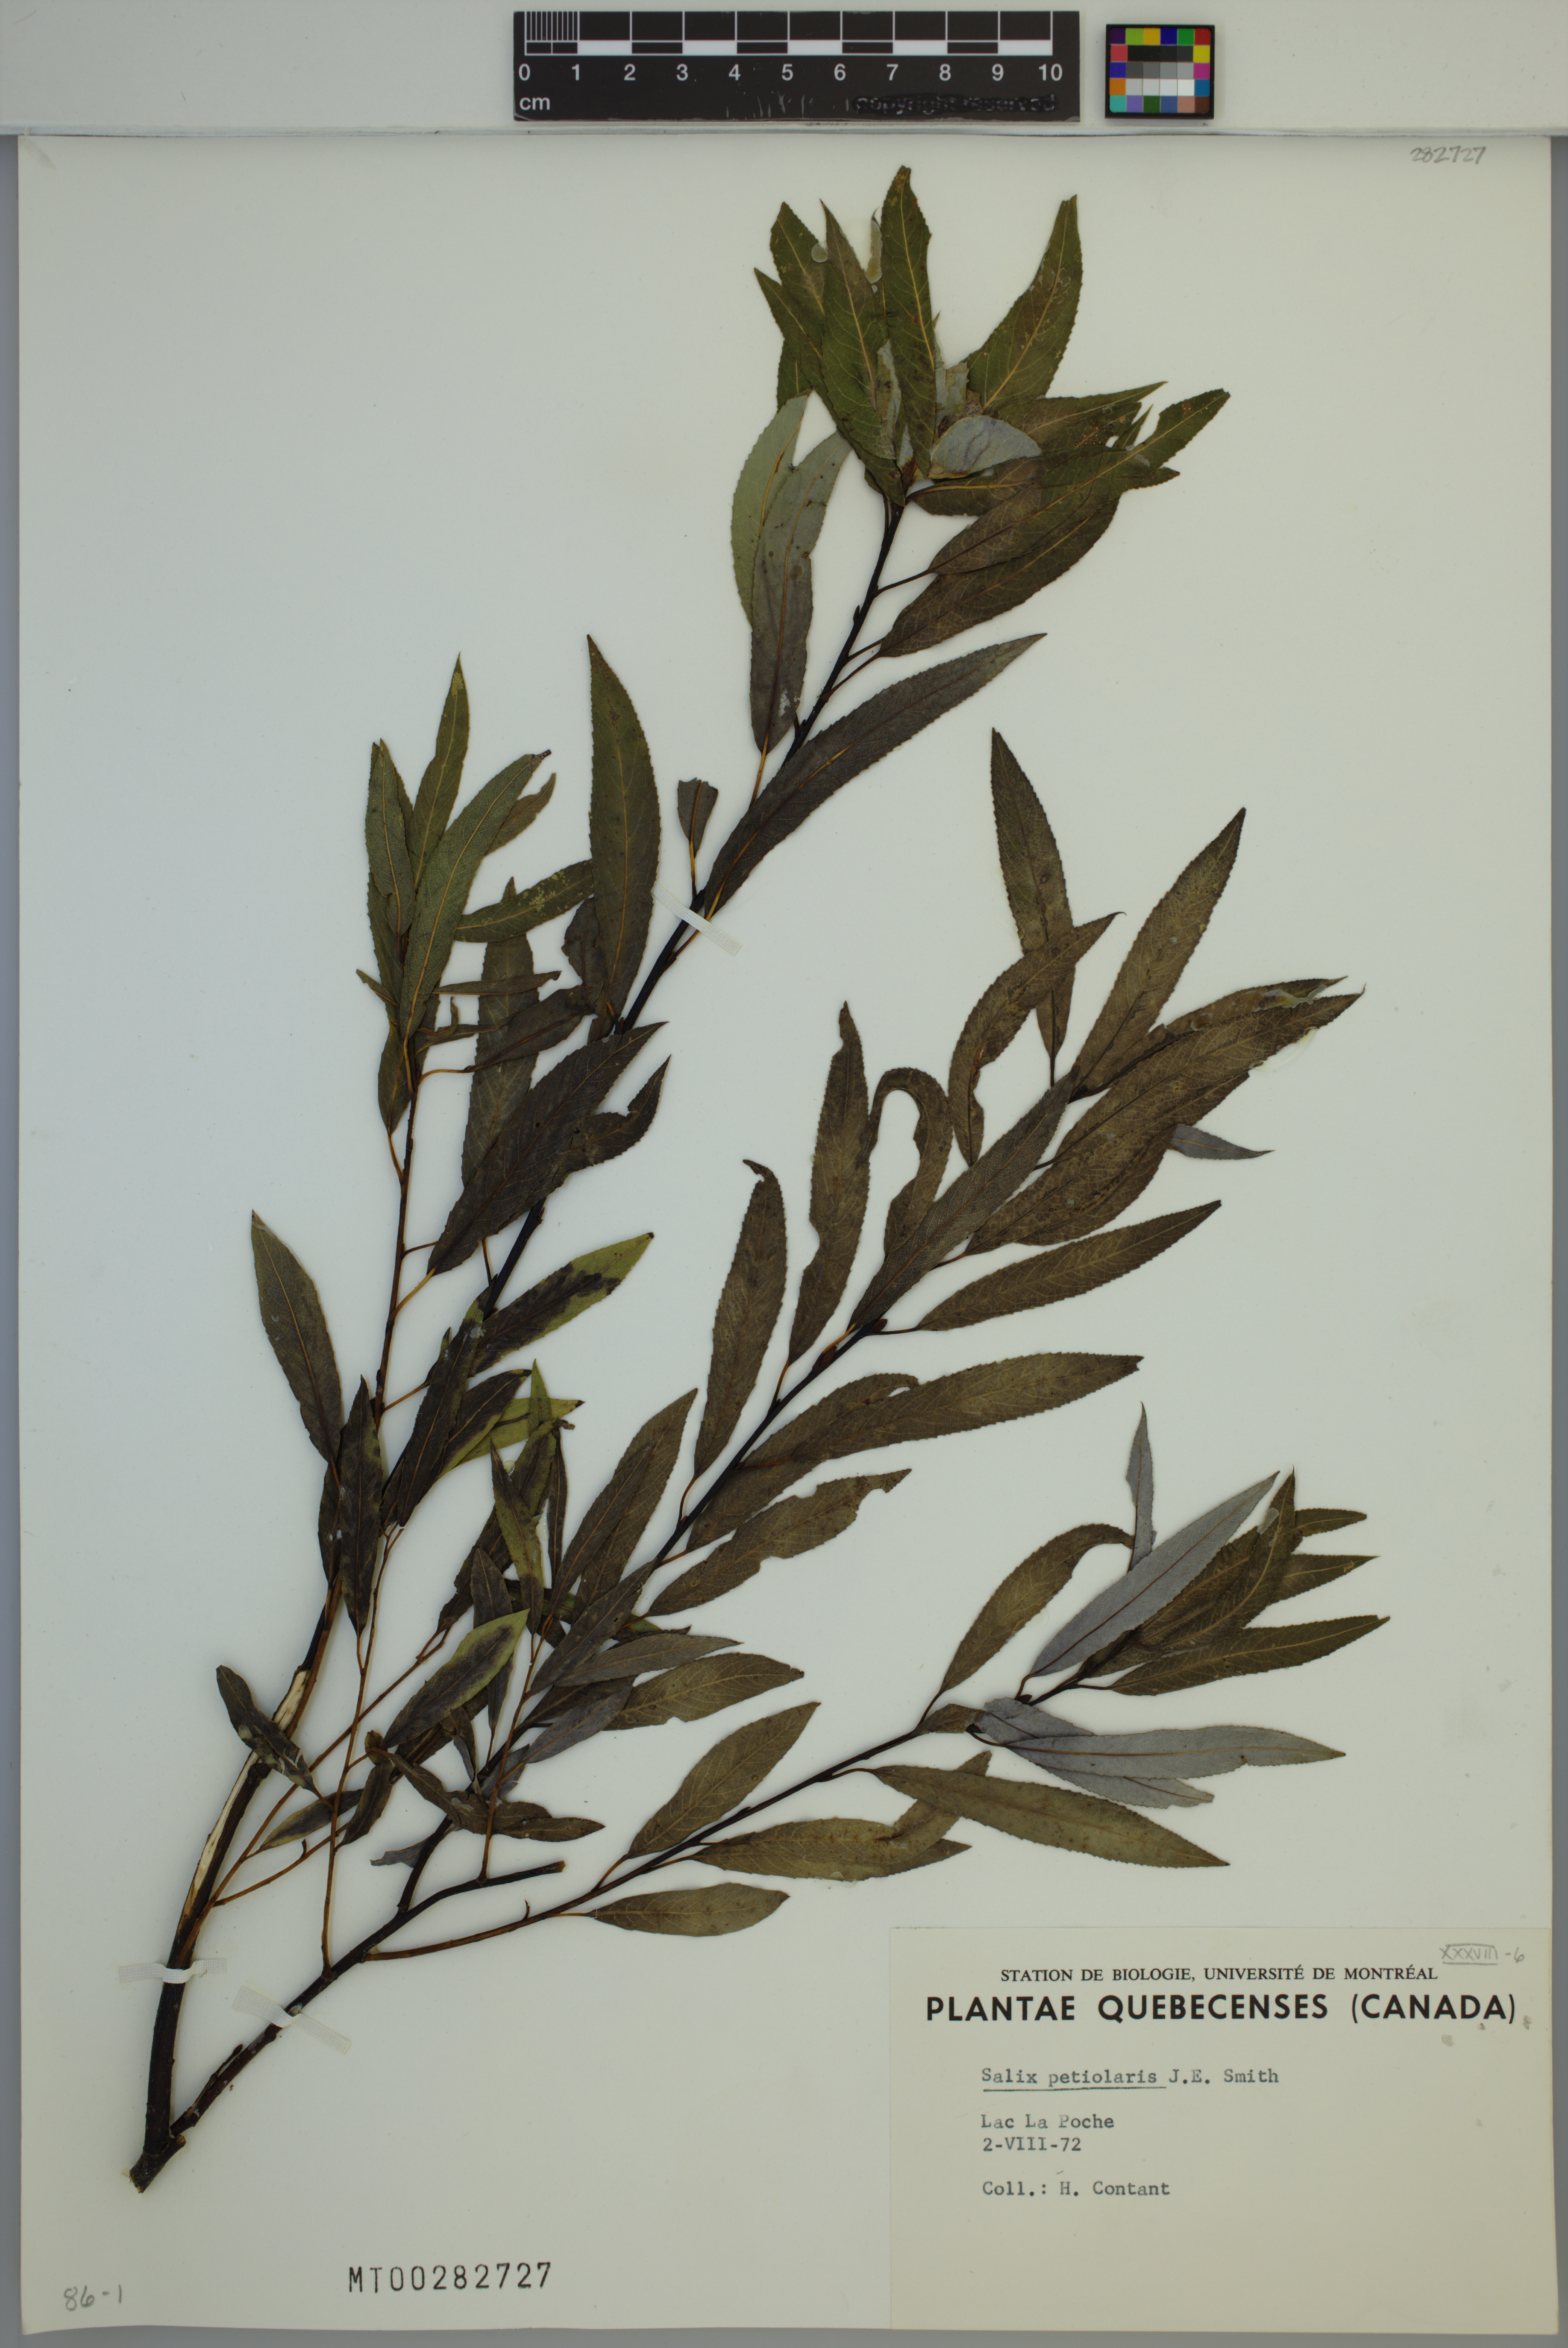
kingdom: Plantae
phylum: Tracheophyta
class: Magnoliopsida
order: Malpighiales
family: Salicaceae
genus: Salix
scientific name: Salix petiolaris
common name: Slender willow
